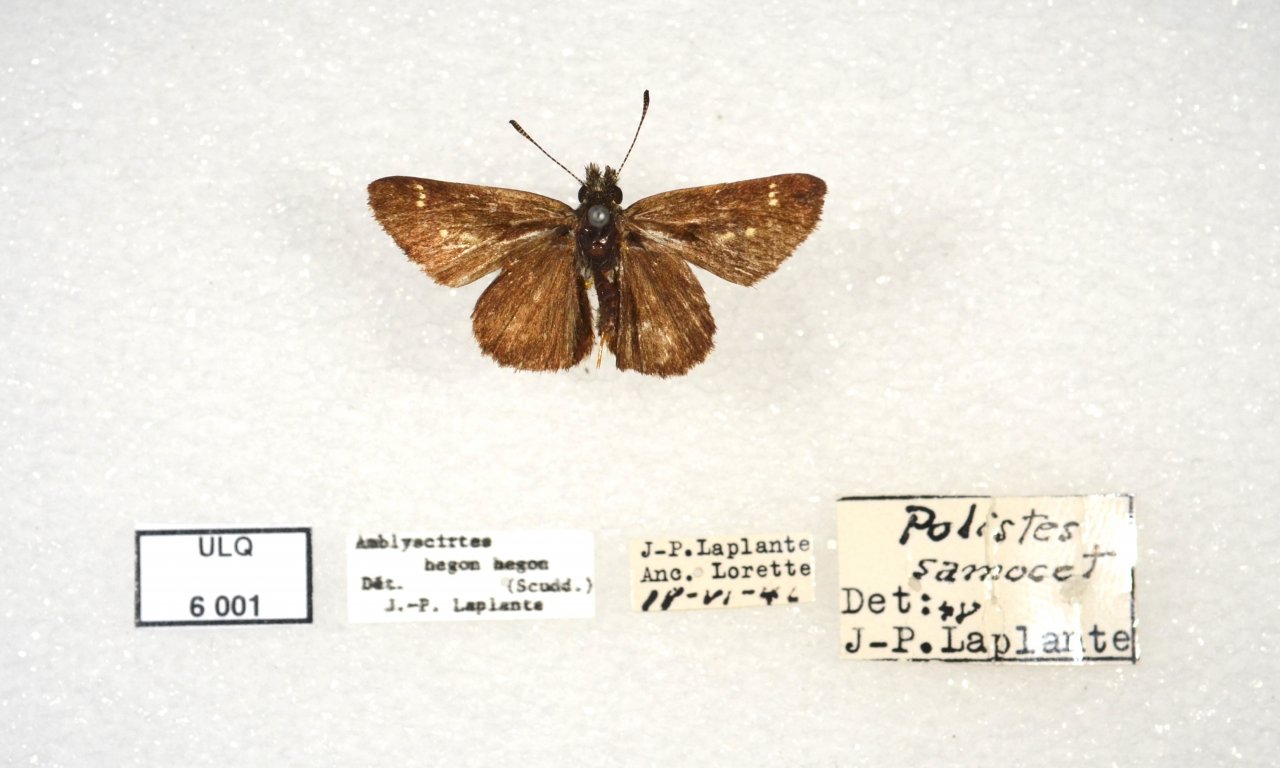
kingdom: Animalia
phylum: Arthropoda
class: Insecta
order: Lepidoptera
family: Hesperiidae
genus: Mastor
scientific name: Mastor vialis
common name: Common Roadside-Skipper
